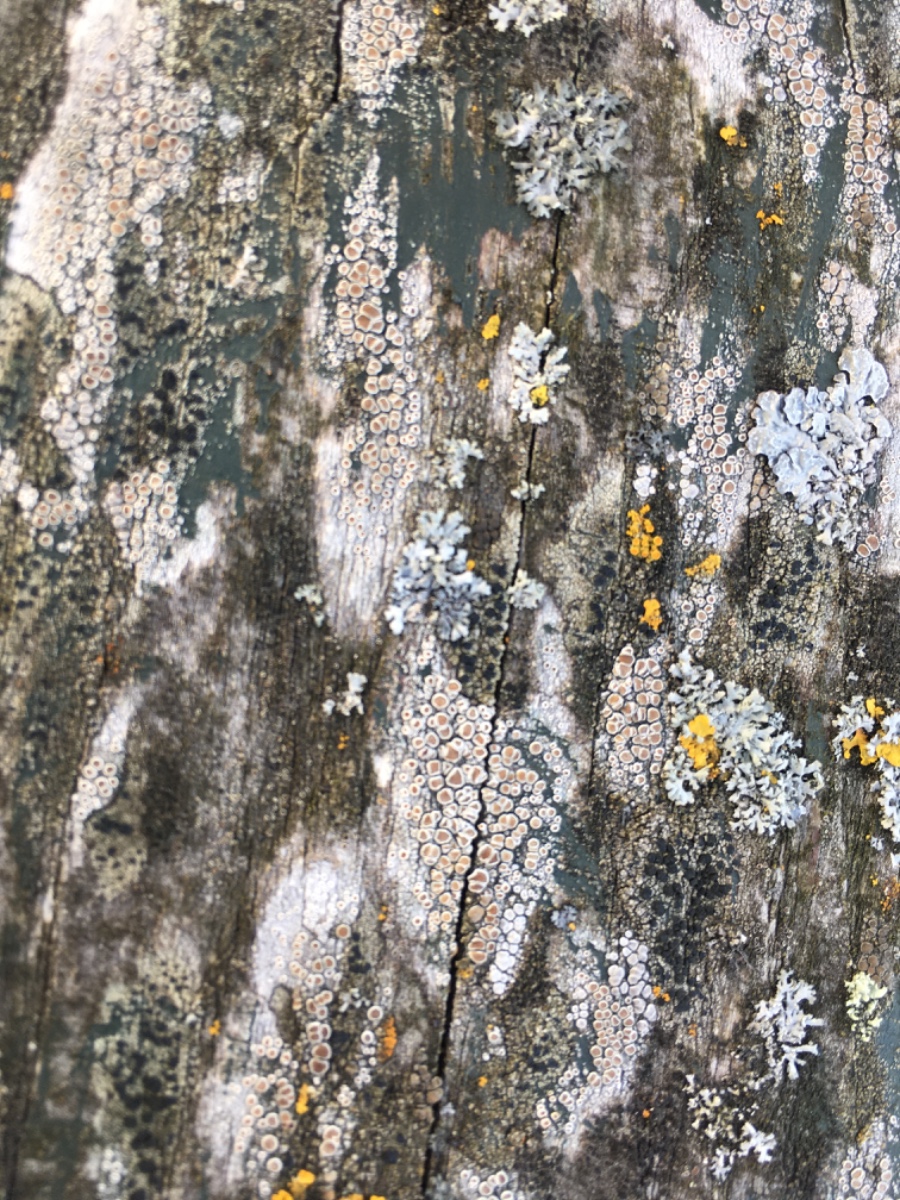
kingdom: Fungi
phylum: Ascomycota
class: Lecanoromycetes
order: Lecanorales
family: Lecanoraceae
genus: Lecanora
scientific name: Lecanora chlarotera
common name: brun kantskivelav
